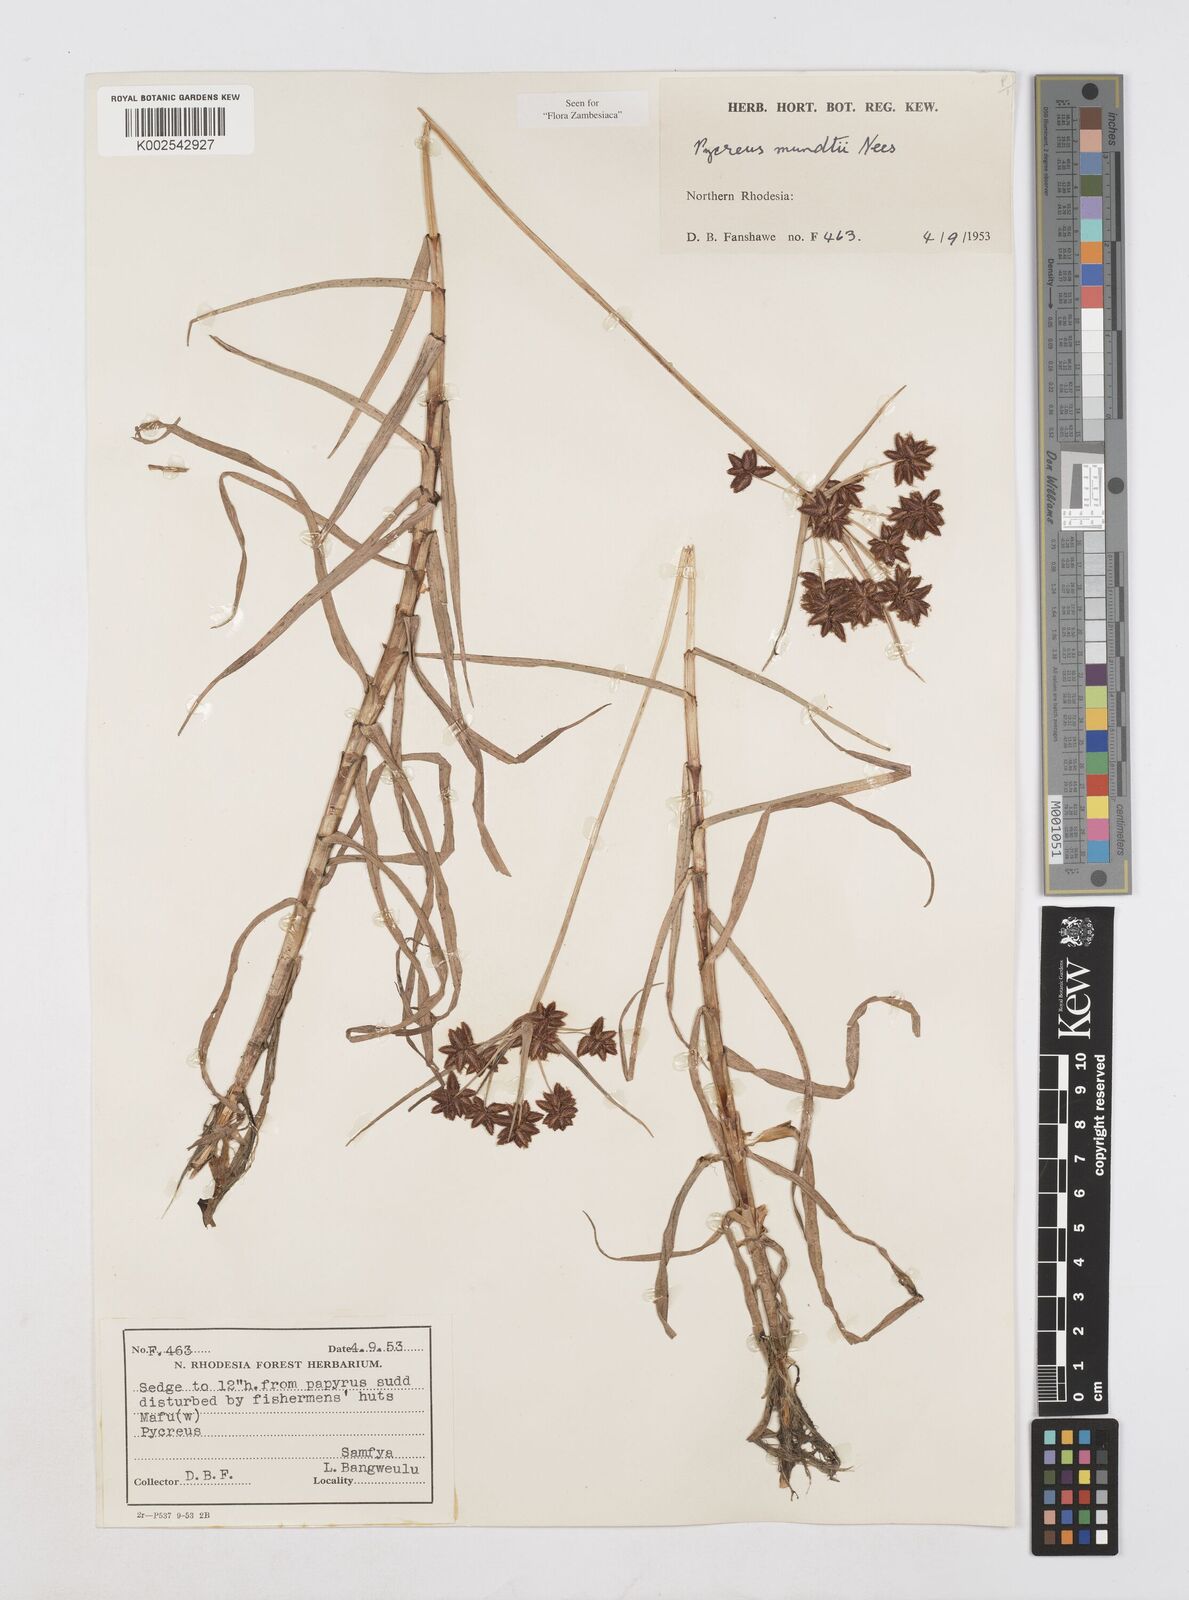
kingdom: Plantae
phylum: Tracheophyta
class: Liliopsida
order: Poales
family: Cyperaceae
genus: Cyperus
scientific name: Cyperus mundii
